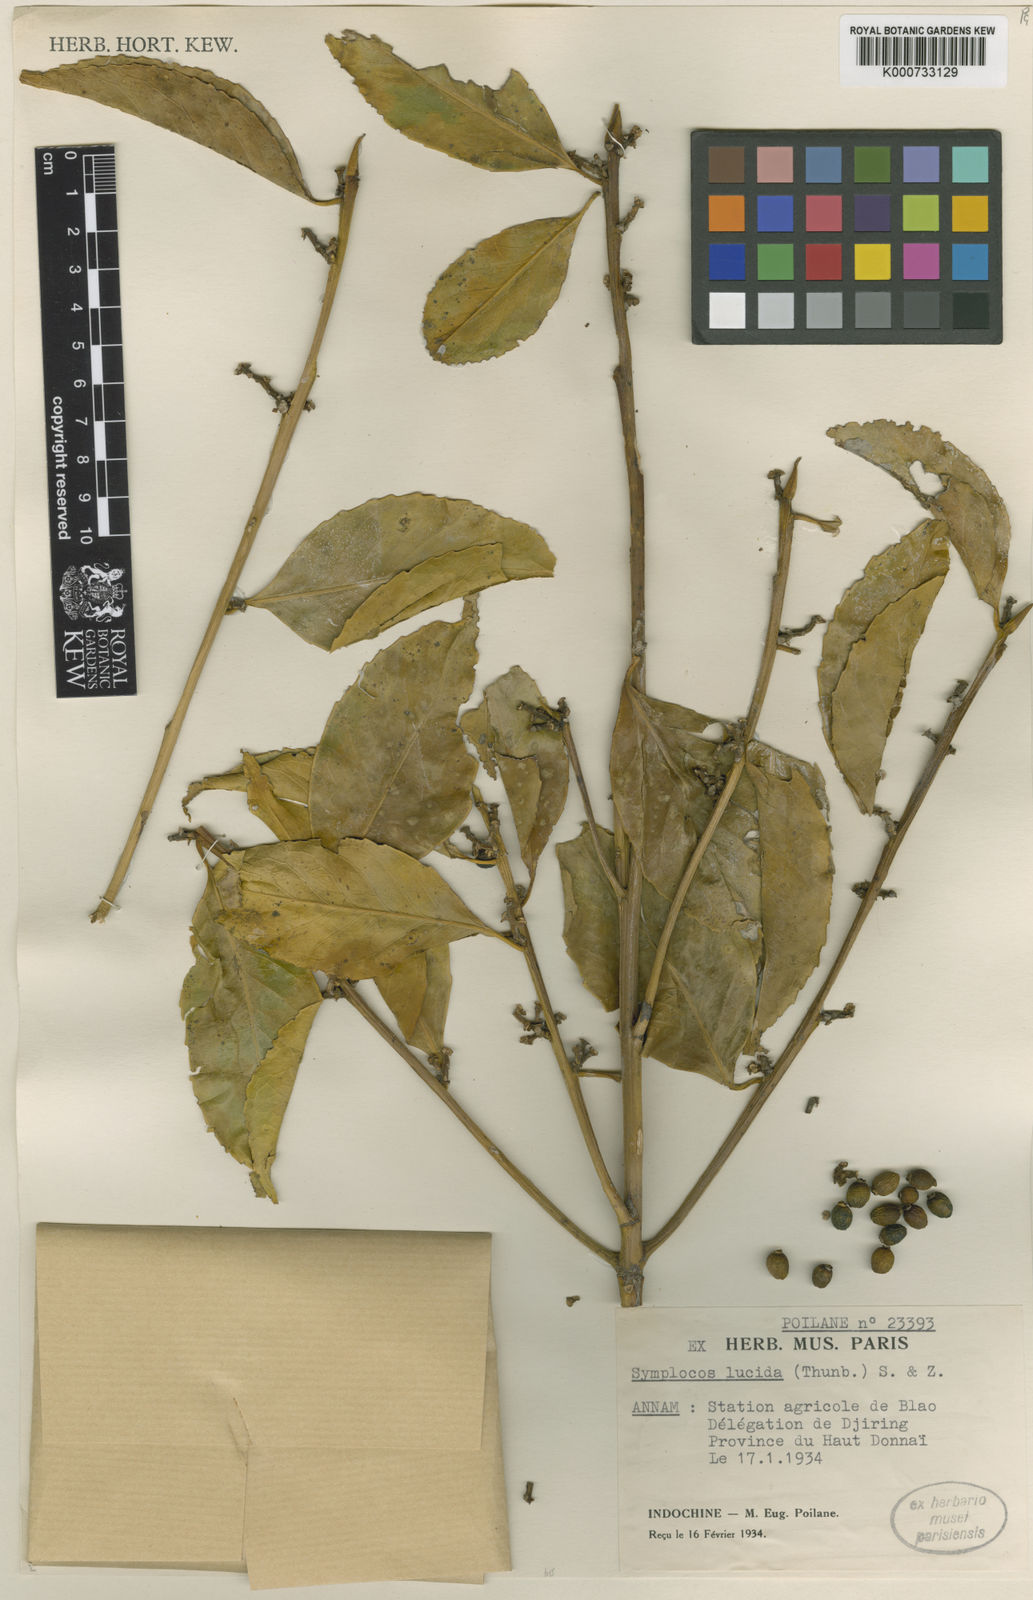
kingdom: Plantae
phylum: Tracheophyta
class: Magnoliopsida
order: Ericales
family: Symplocaceae
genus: Symplocos
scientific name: Symplocos
